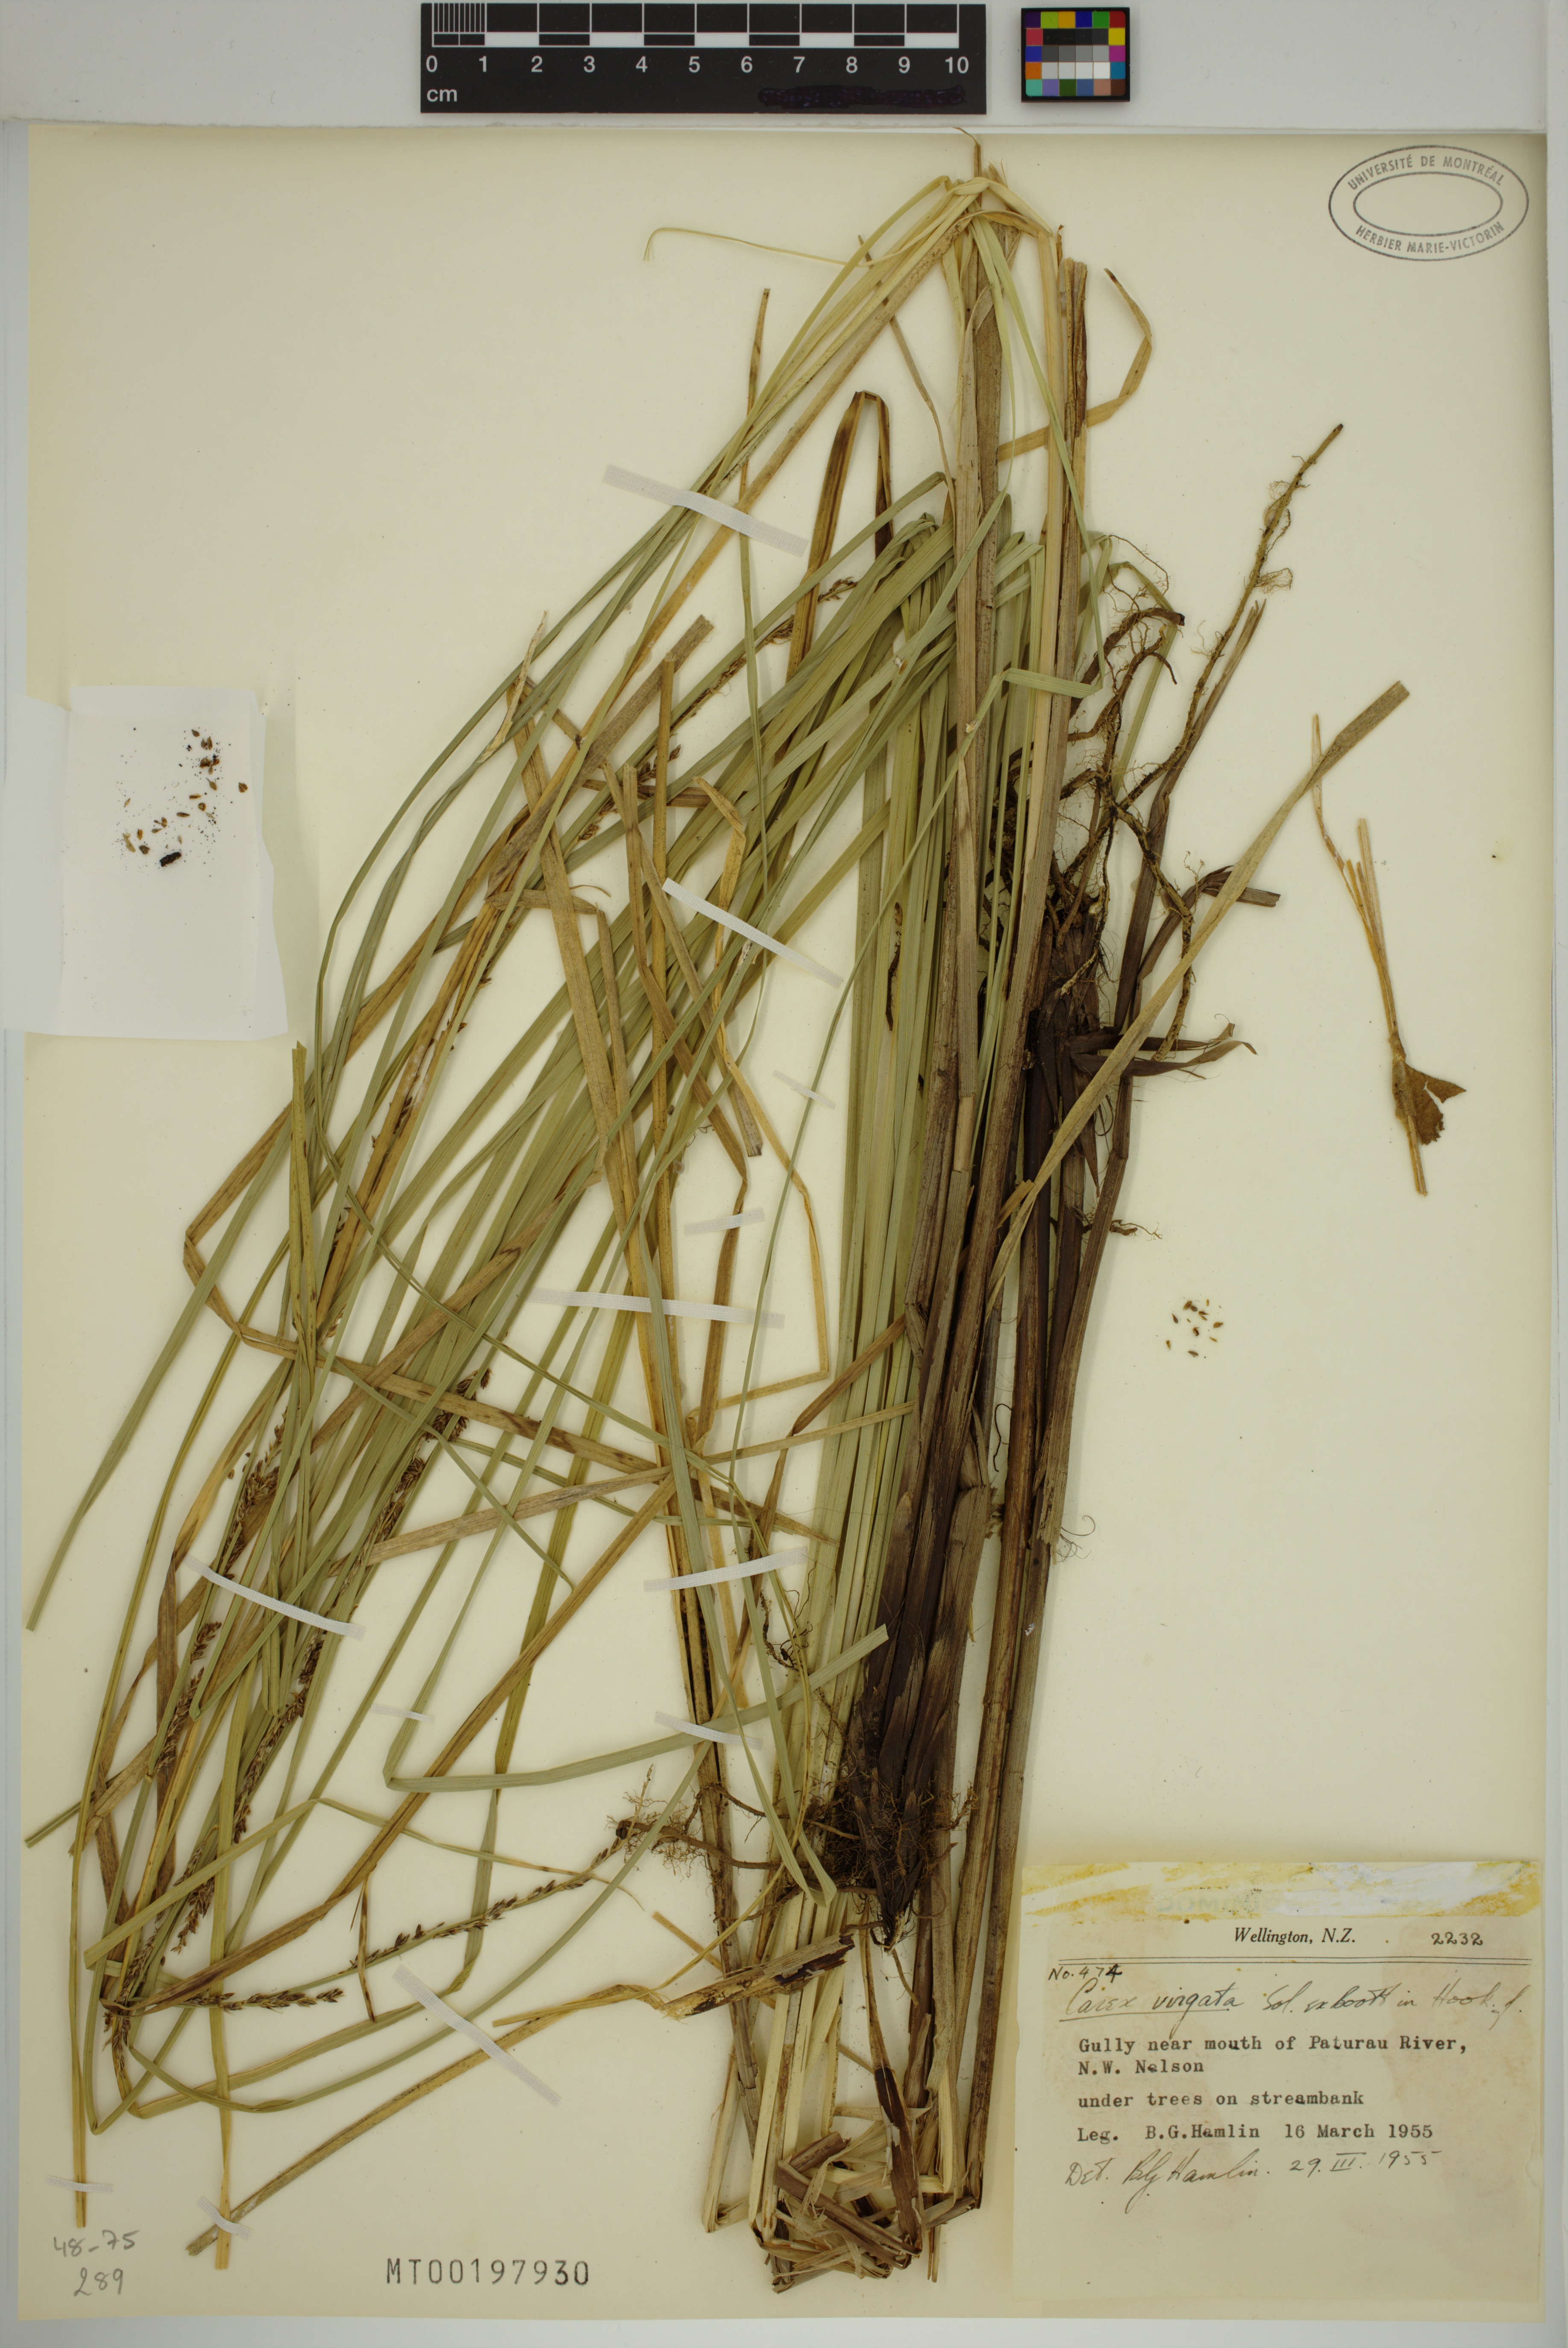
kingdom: Plantae
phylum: Tracheophyta
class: Liliopsida
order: Poales
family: Cyperaceae
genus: Carex
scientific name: Carex appressa
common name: Tussock sedge
